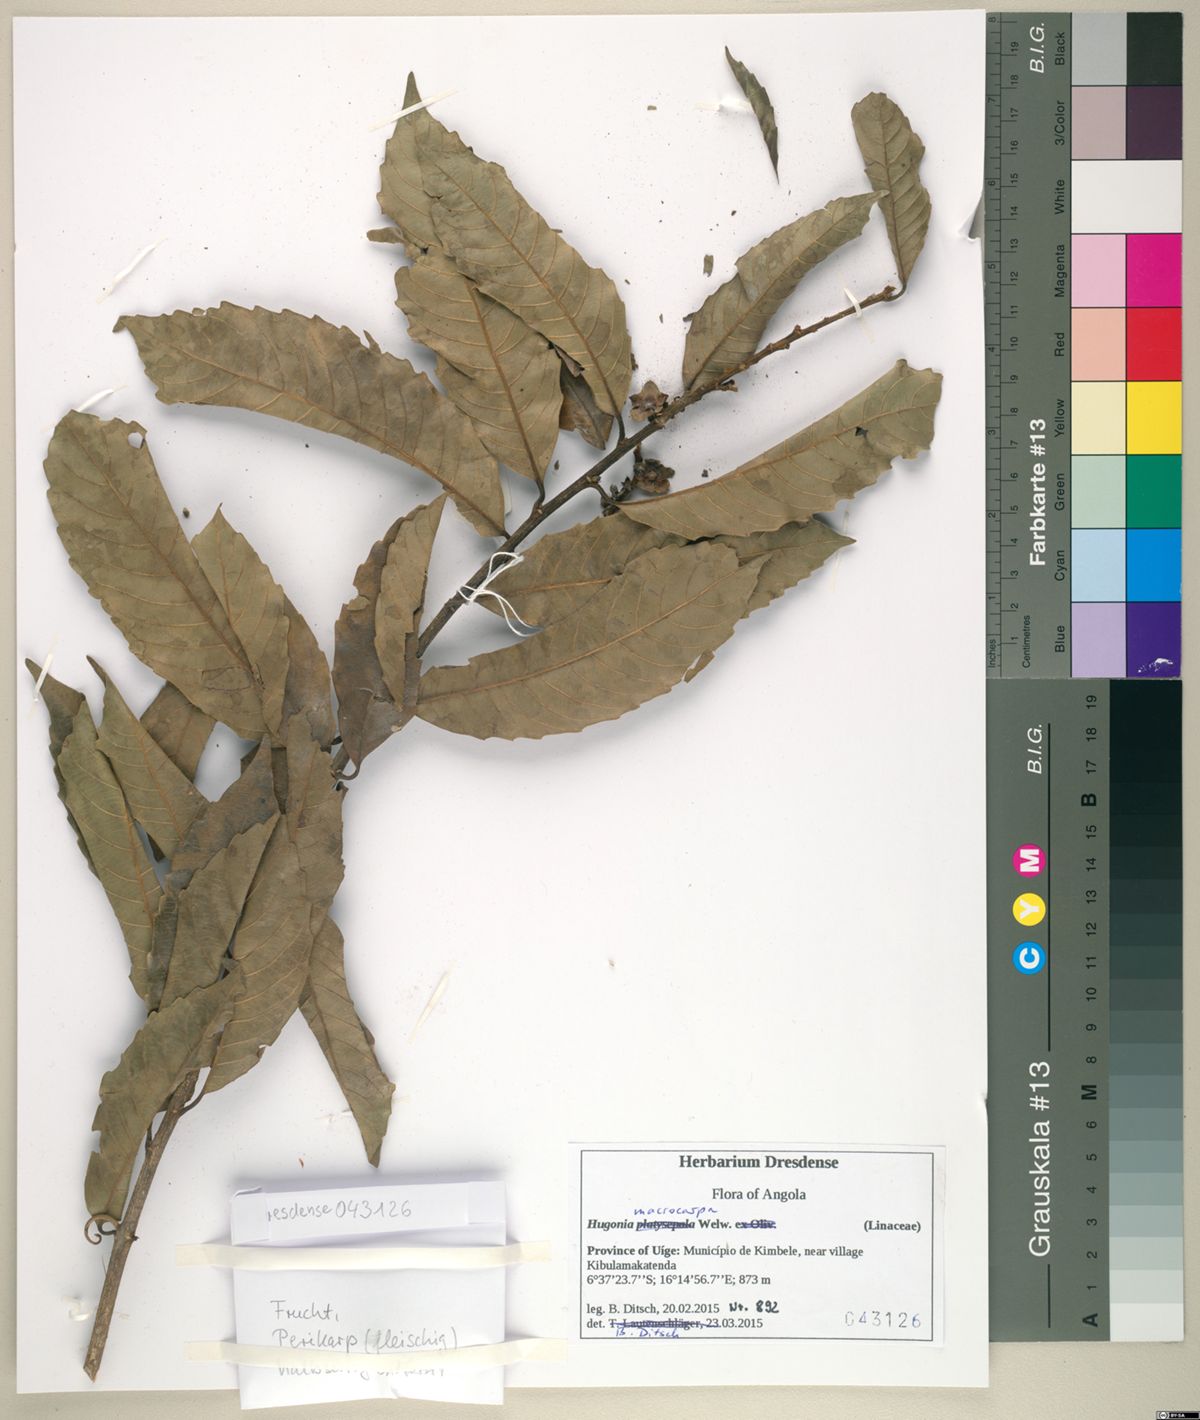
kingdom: Plantae
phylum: Tracheophyta
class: Magnoliopsida
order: Malpighiales
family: Linaceae
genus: Hugonia
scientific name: Hugonia macrocarpa
